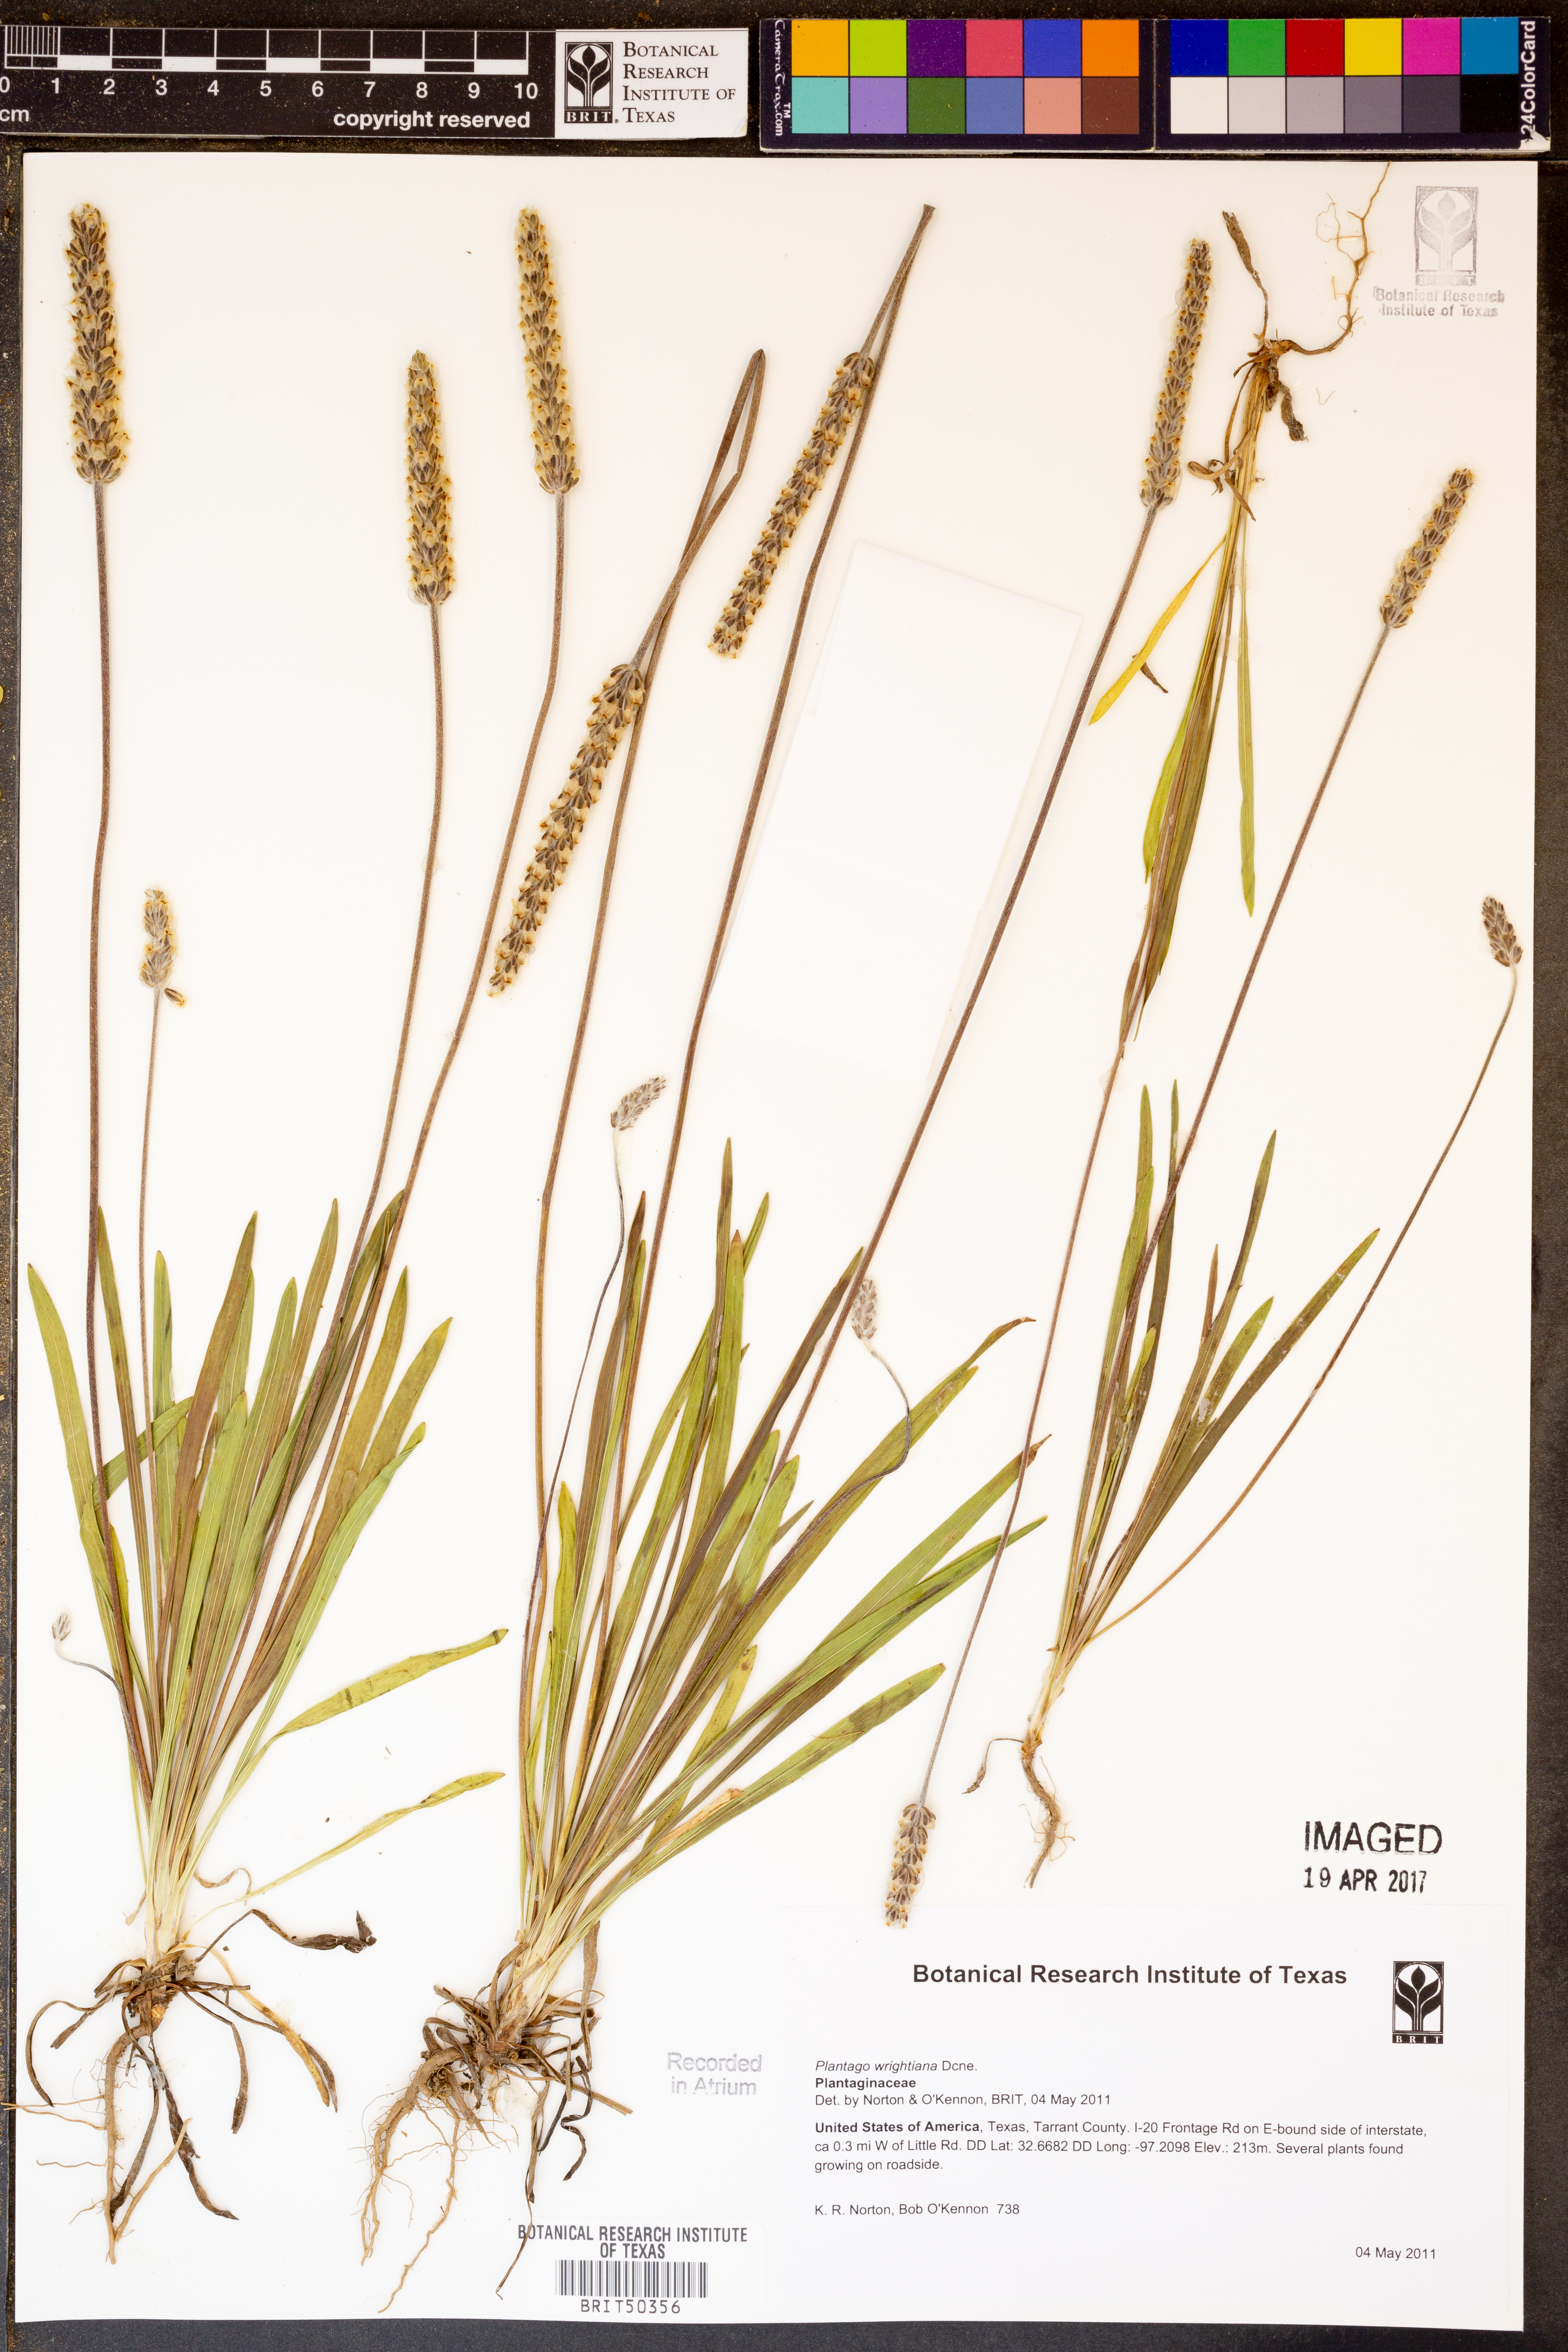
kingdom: Plantae
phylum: Tracheophyta
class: Magnoliopsida
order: Lamiales
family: Plantaginaceae
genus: Plantago
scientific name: Plantago wrightiana
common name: Wright's plantain
